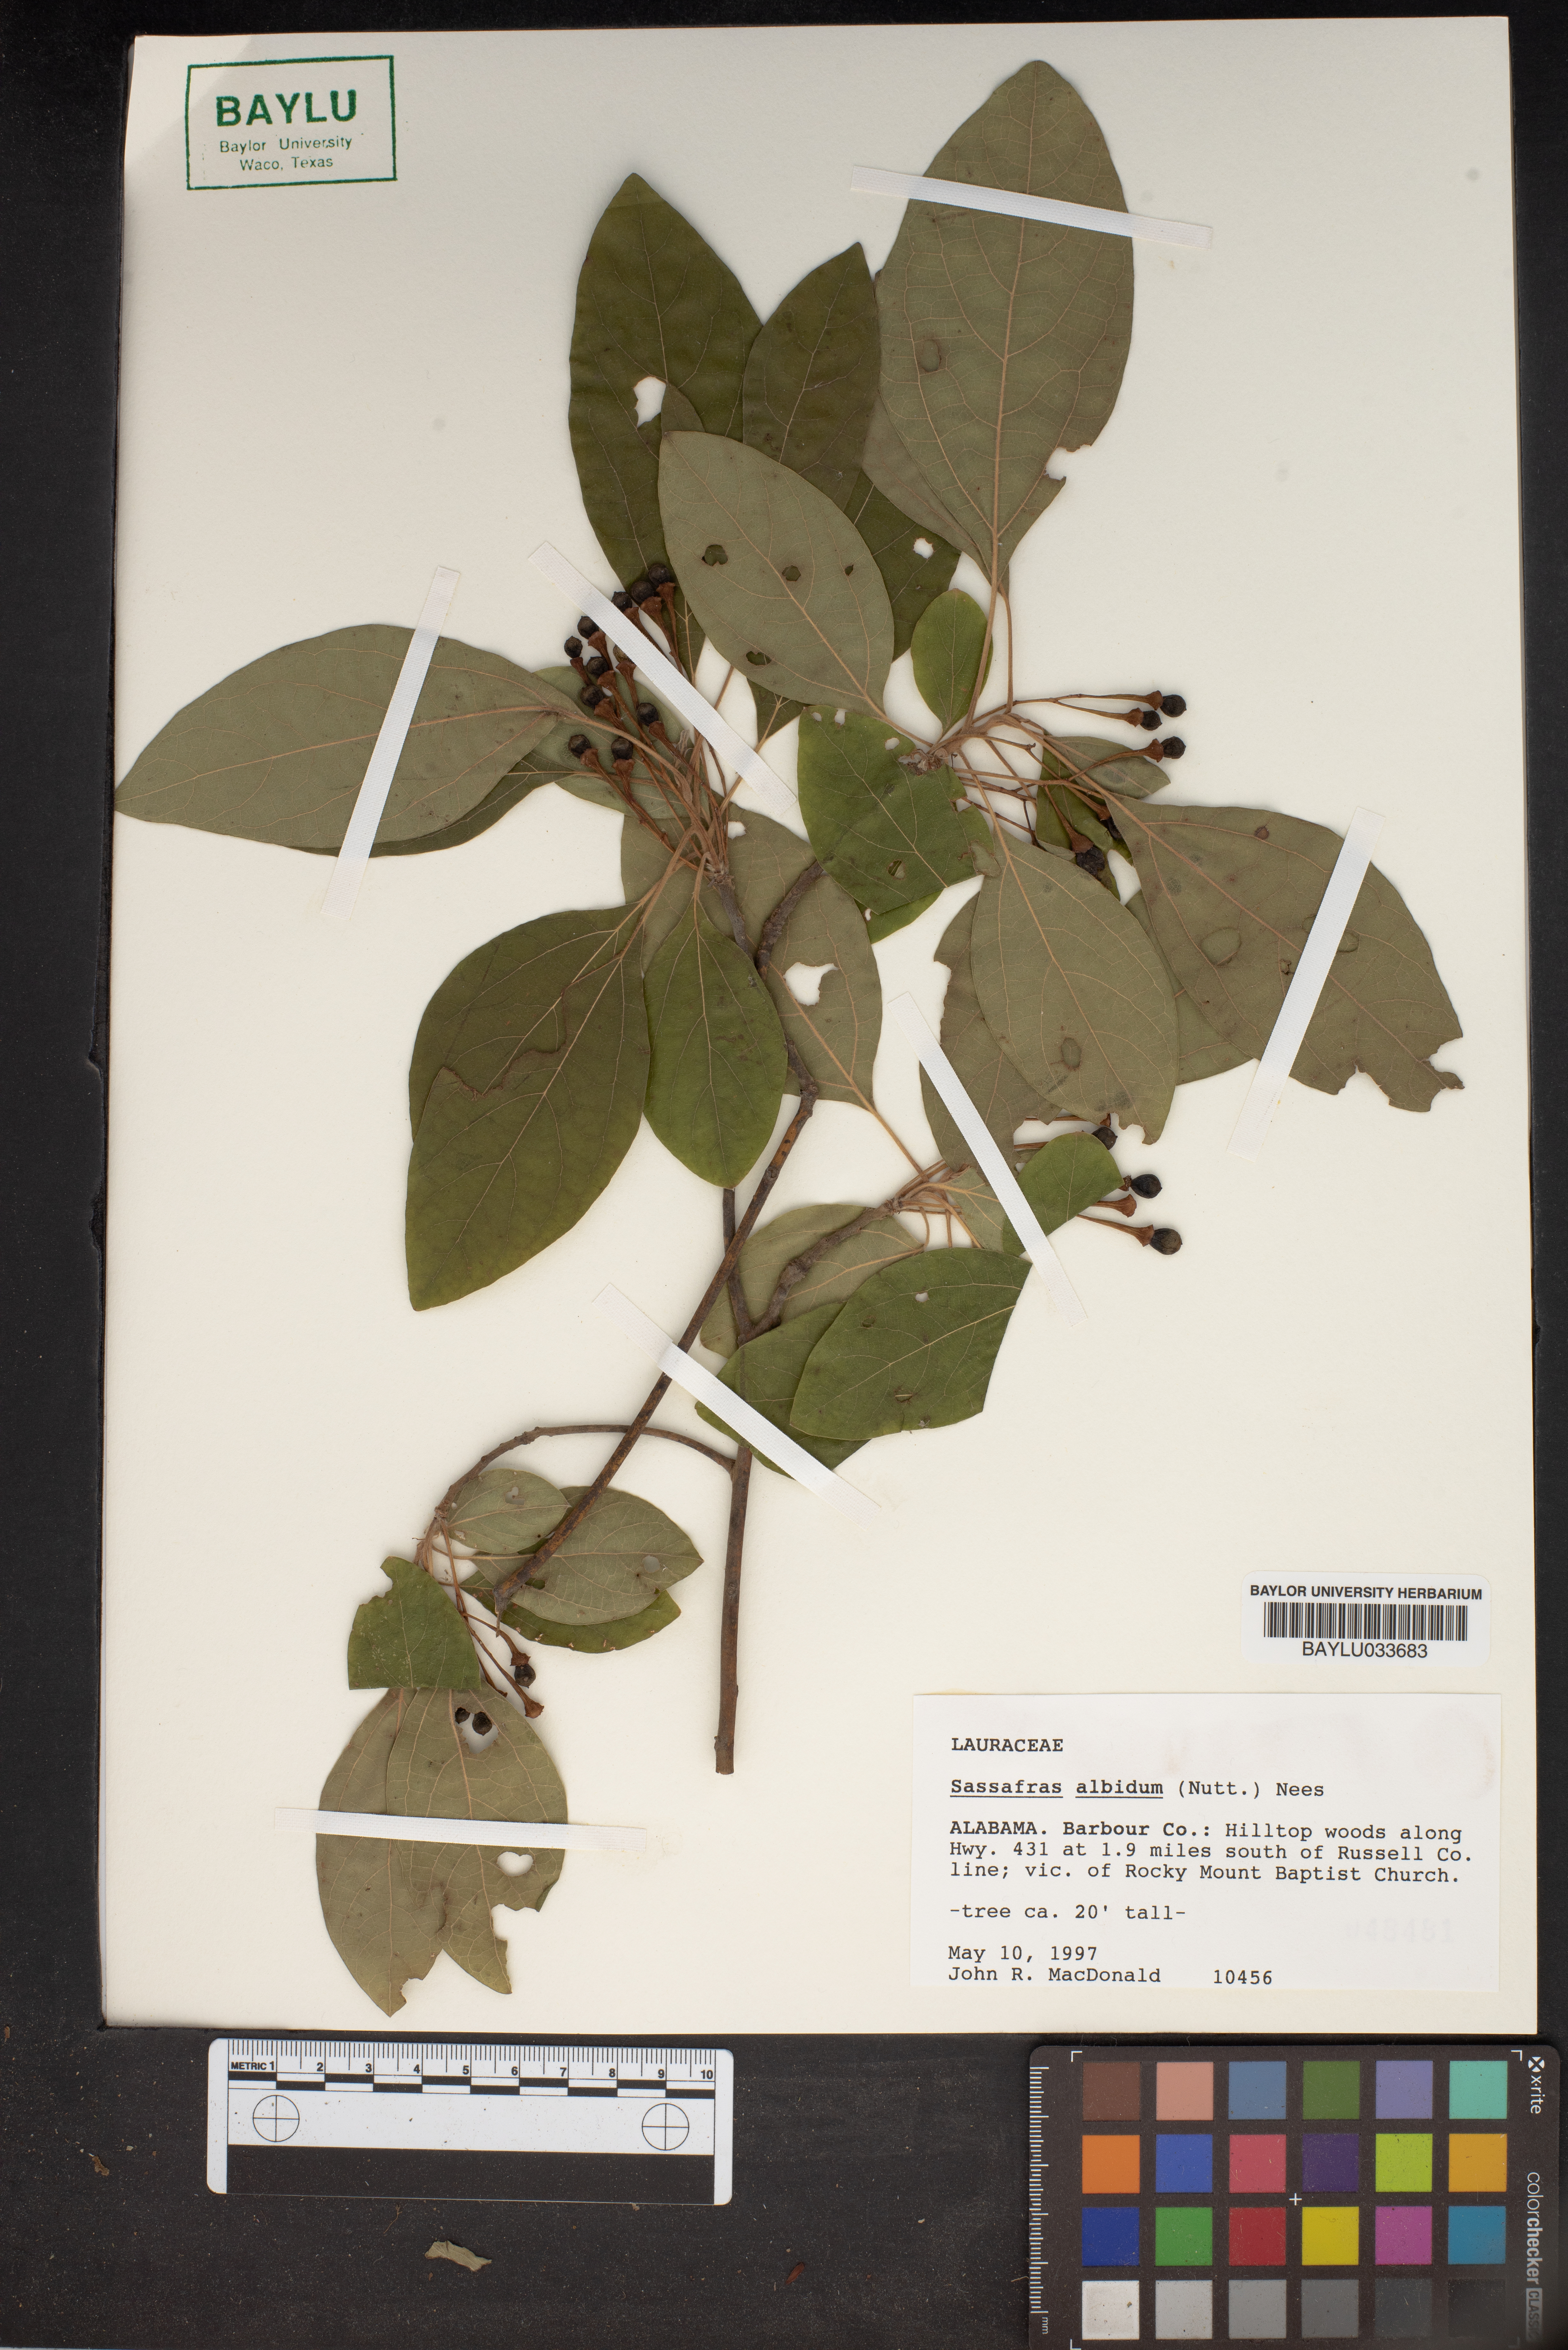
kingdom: Plantae
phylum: Tracheophyta
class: Magnoliopsida
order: Laurales
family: Lauraceae
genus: Sassafras
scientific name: Sassafras albidum
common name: Sassafras
